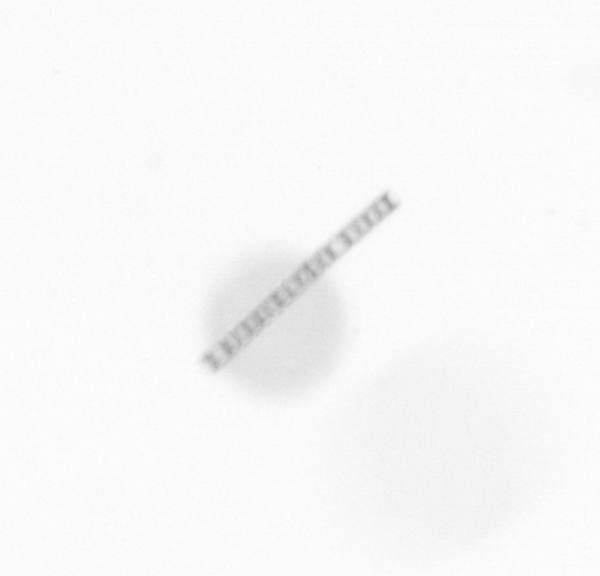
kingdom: Chromista
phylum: Ochrophyta
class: Bacillariophyceae
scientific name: Bacillariophyceae
